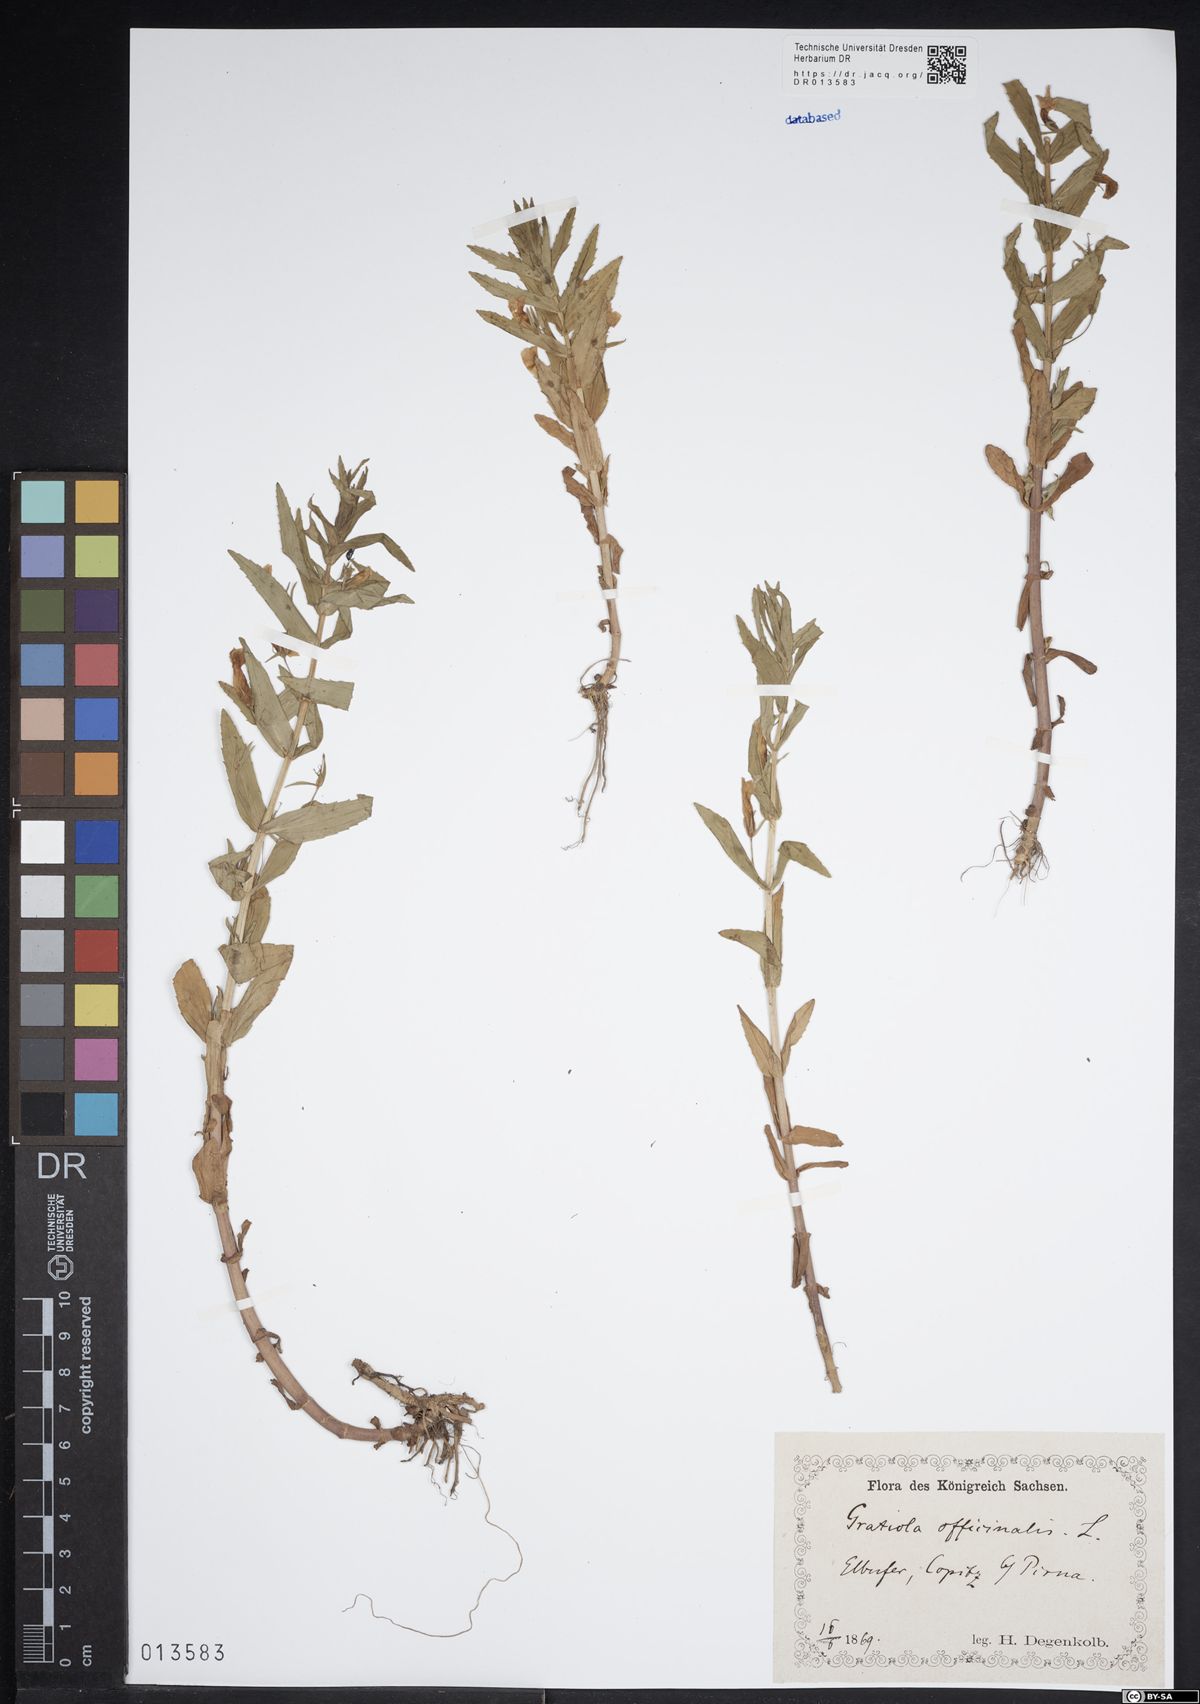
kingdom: Plantae
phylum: Tracheophyta
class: Magnoliopsida
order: Lamiales
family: Plantaginaceae
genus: Gratiola
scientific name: Gratiola officinalis
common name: Gratiola
